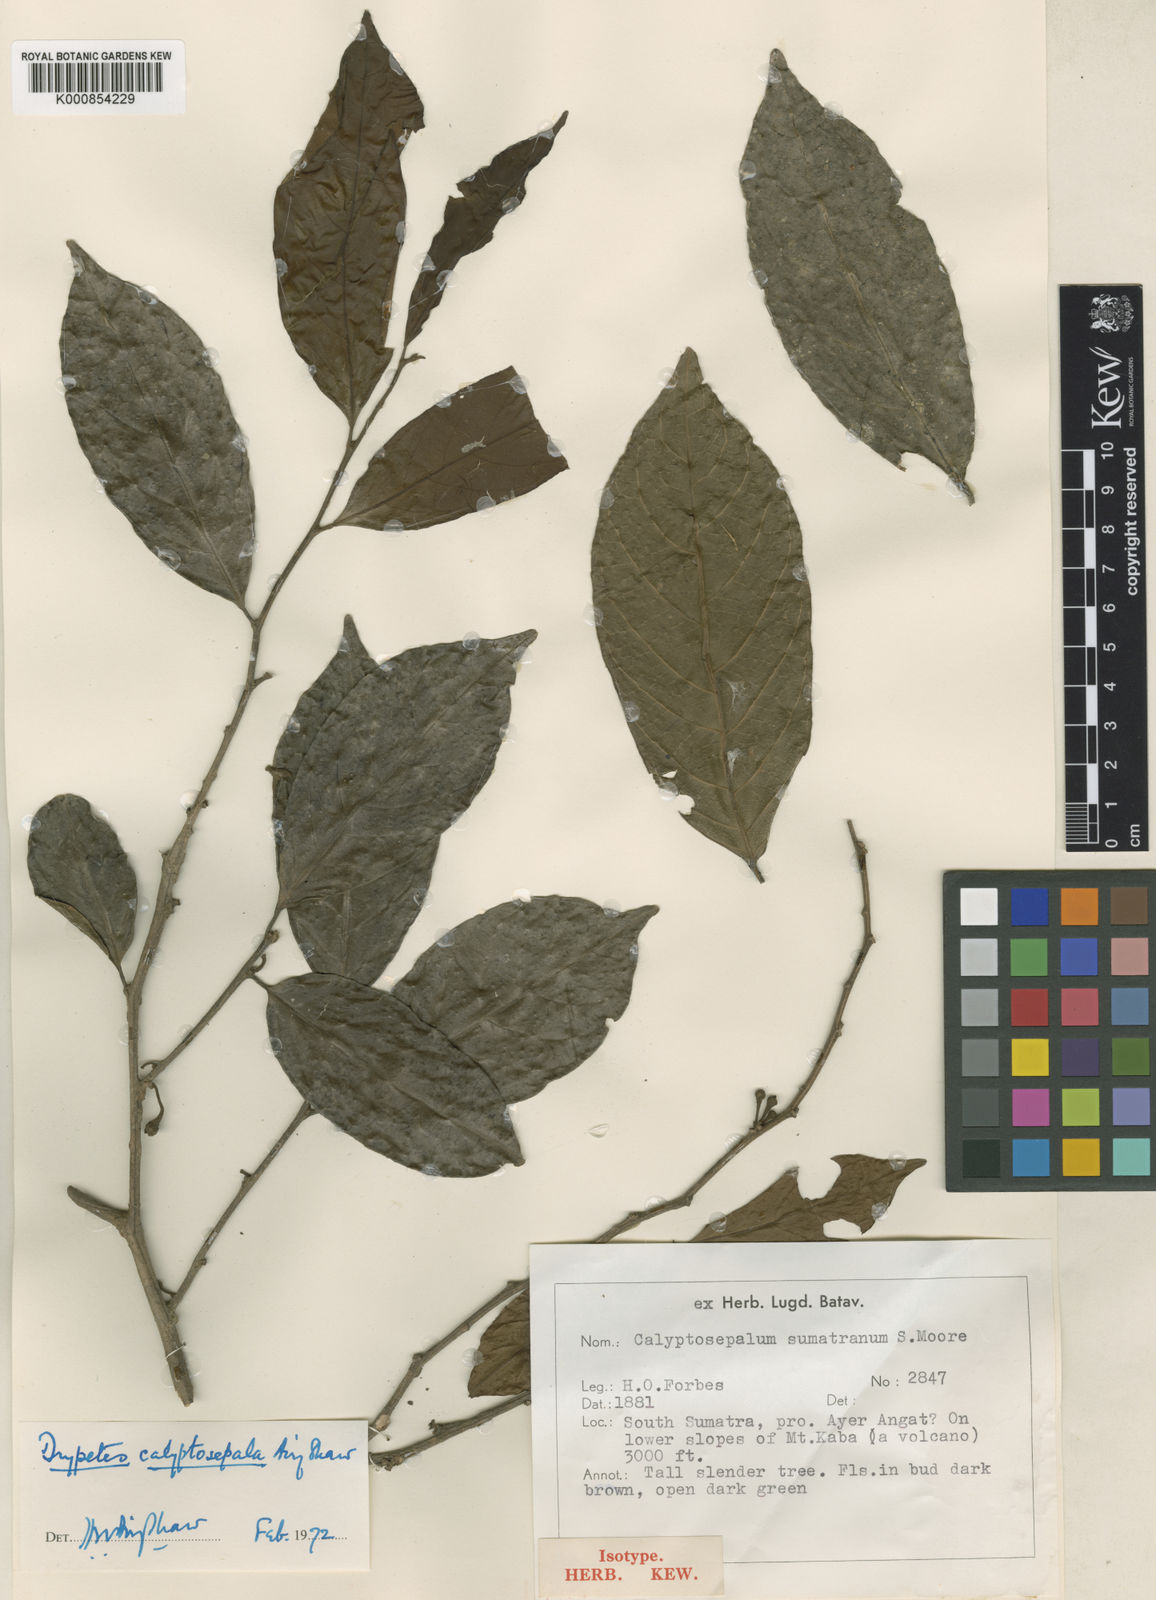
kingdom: Plantae
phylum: Tracheophyta
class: Magnoliopsida
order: Malpighiales
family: Putranjivaceae
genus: Drypetes
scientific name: Drypetes calyptosepala
